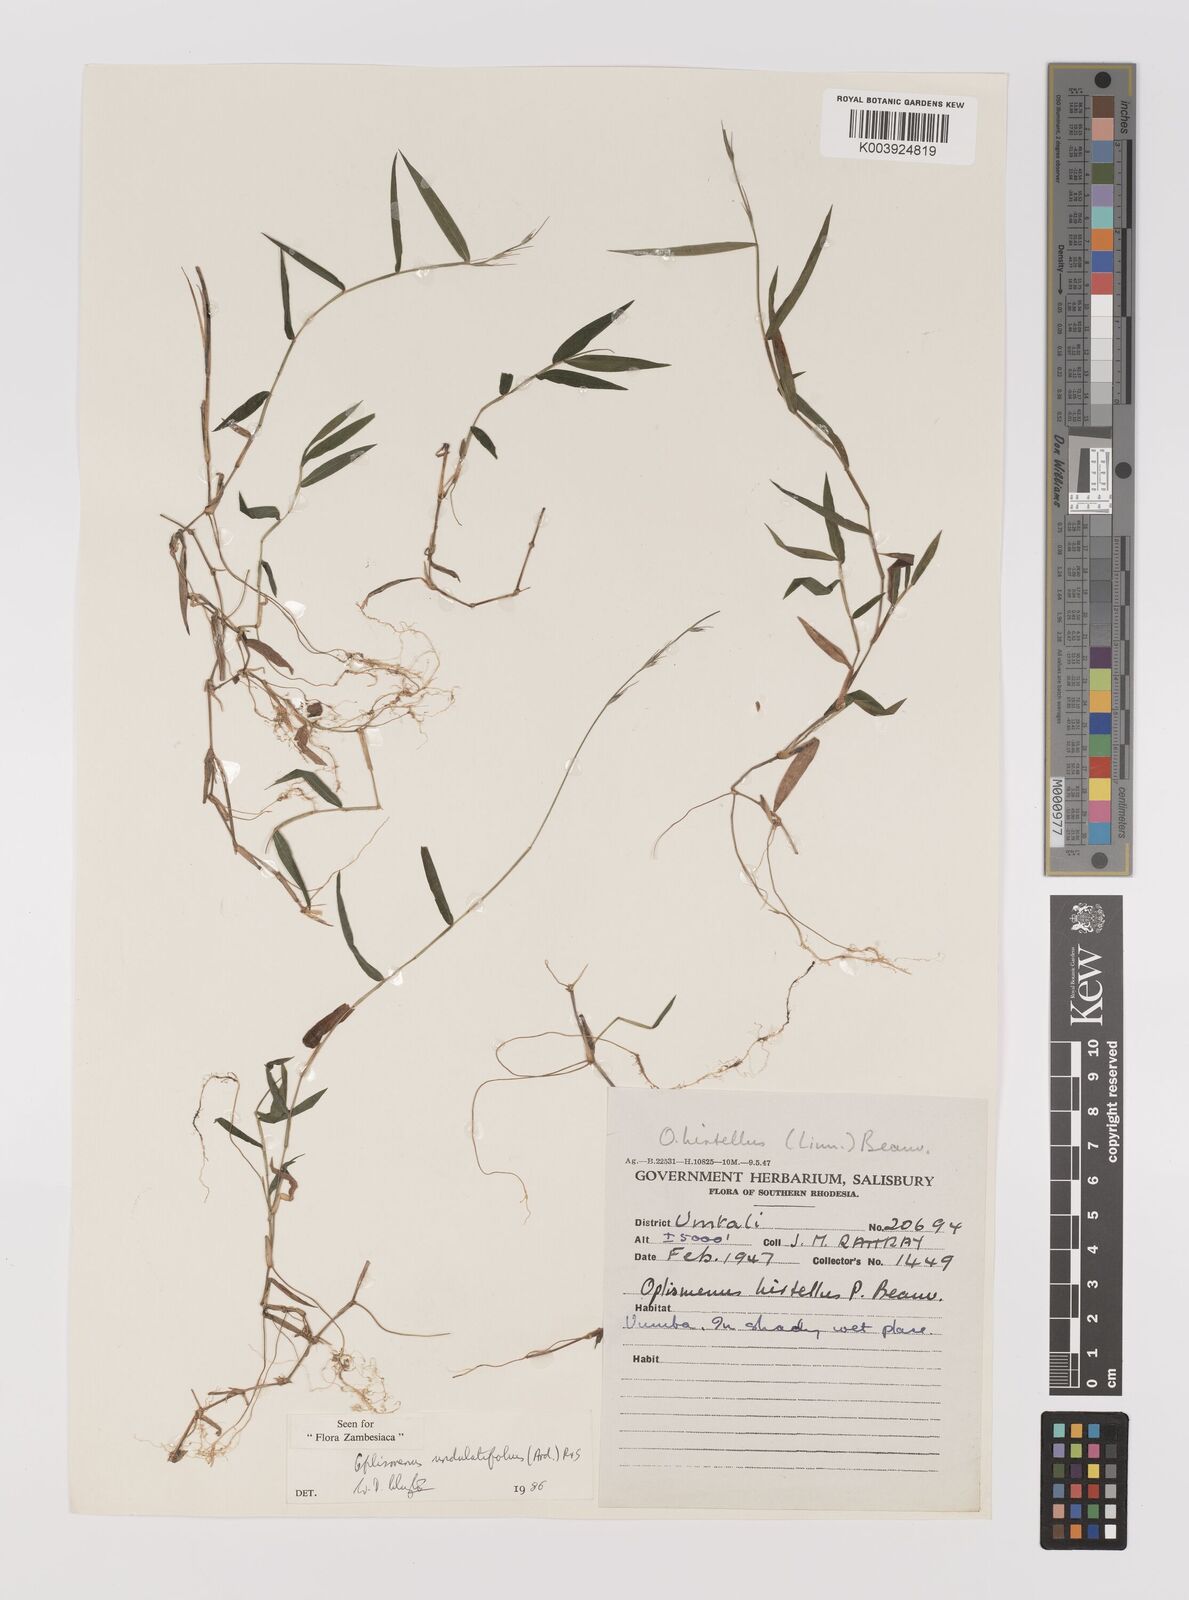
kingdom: Plantae
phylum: Tracheophyta
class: Liliopsida
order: Poales
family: Poaceae
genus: Oplismenus
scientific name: Oplismenus undulatifolius
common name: Wavyleaf basketgrass
